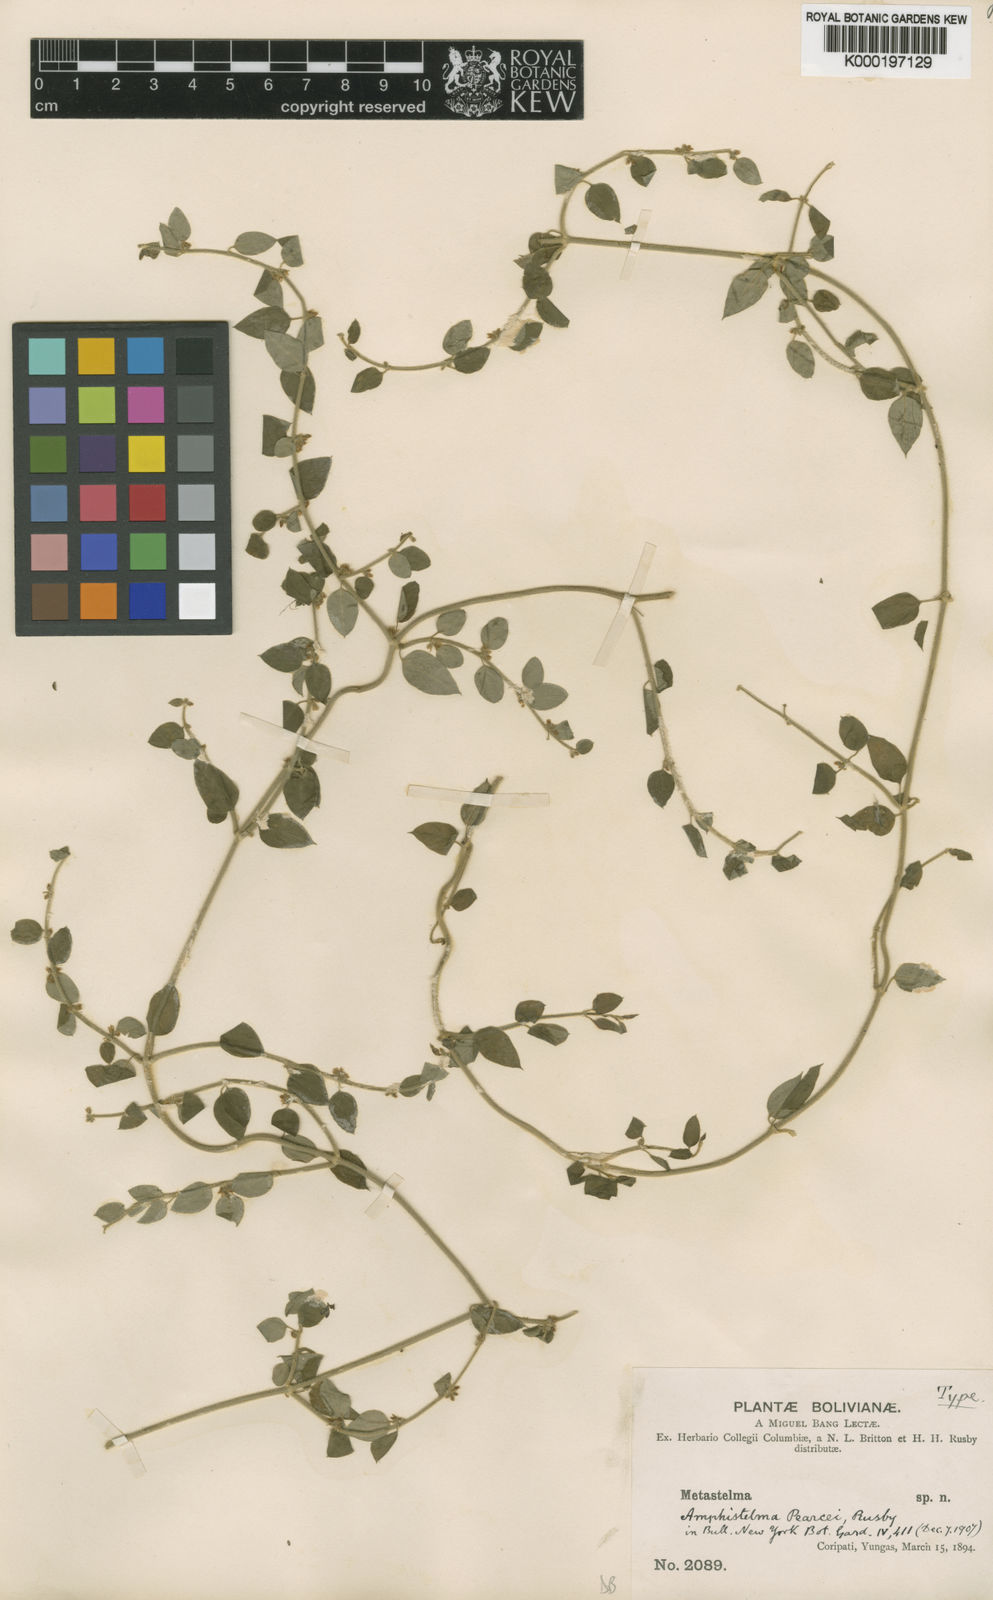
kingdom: Plantae
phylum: Tracheophyta
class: Magnoliopsida
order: Gentianales
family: Apocynaceae
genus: Orthosia
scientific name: Orthosia pearcei
